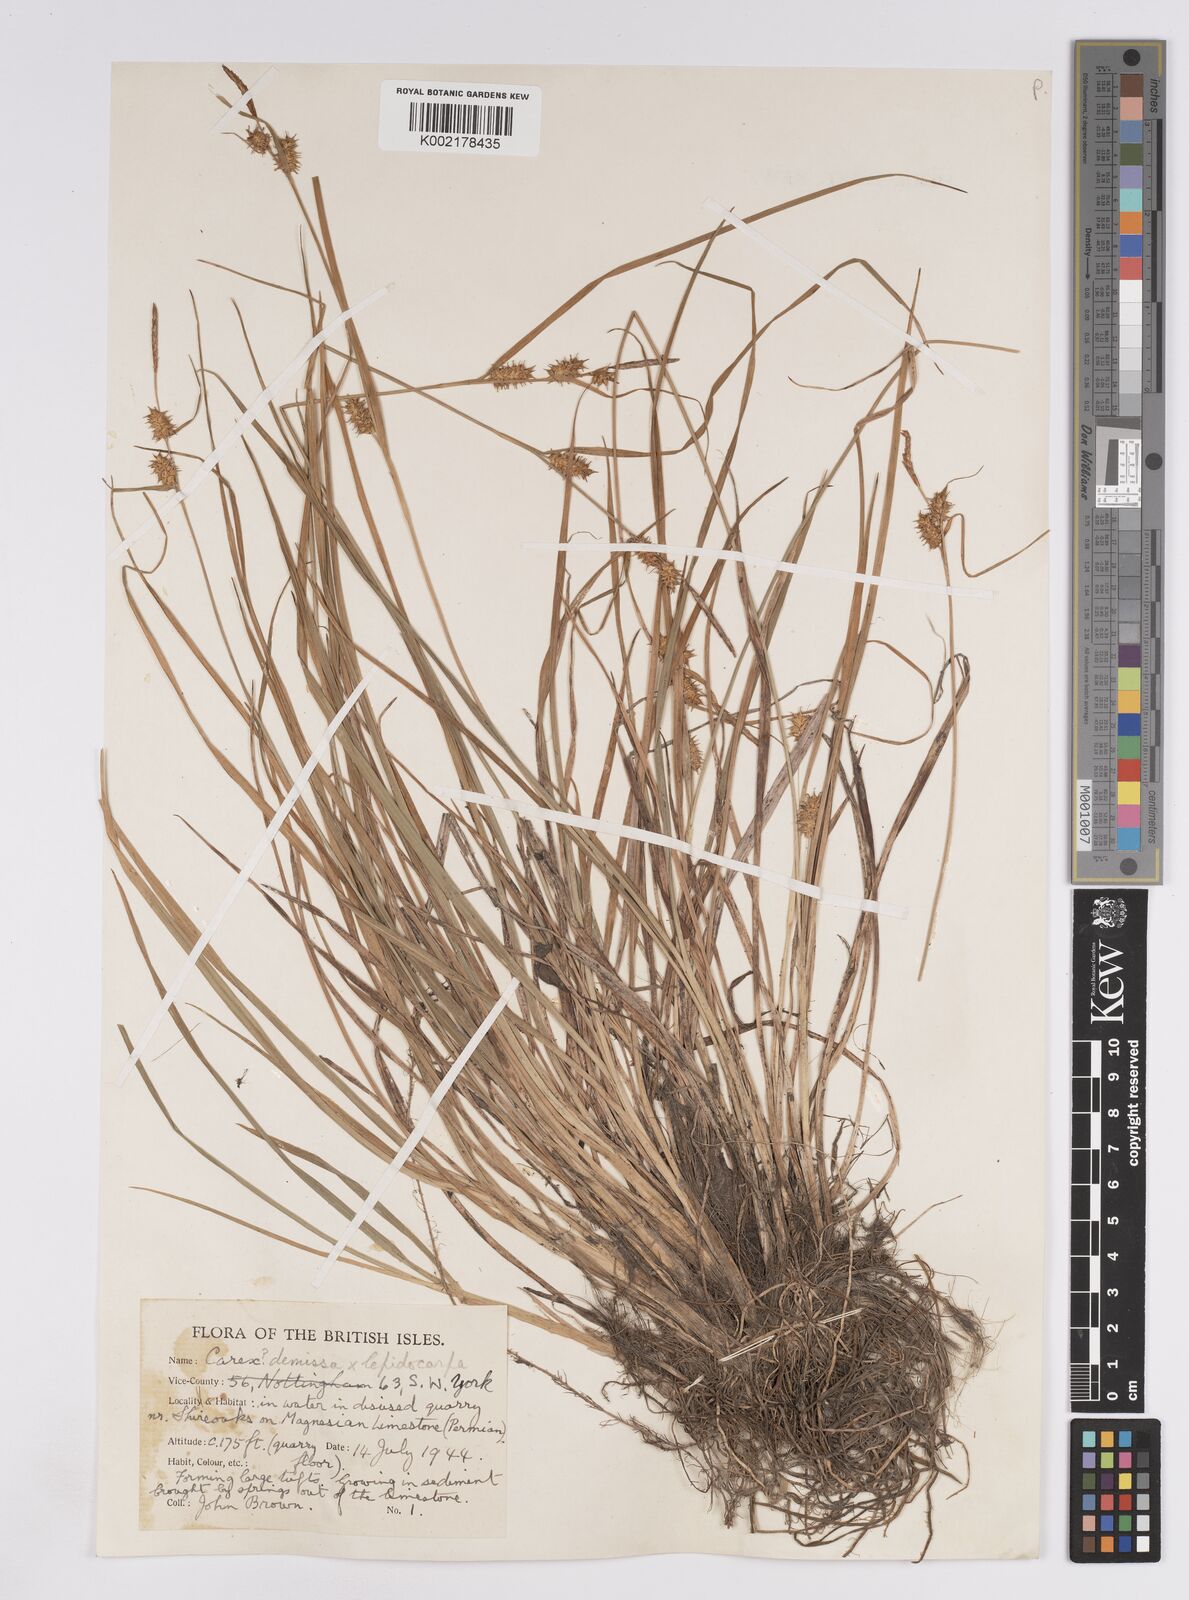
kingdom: Plantae
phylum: Tracheophyta
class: Liliopsida
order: Poales
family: Cyperaceae
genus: Carex
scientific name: Carex lepidocarpa
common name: Long-stalked yellow-sedge
